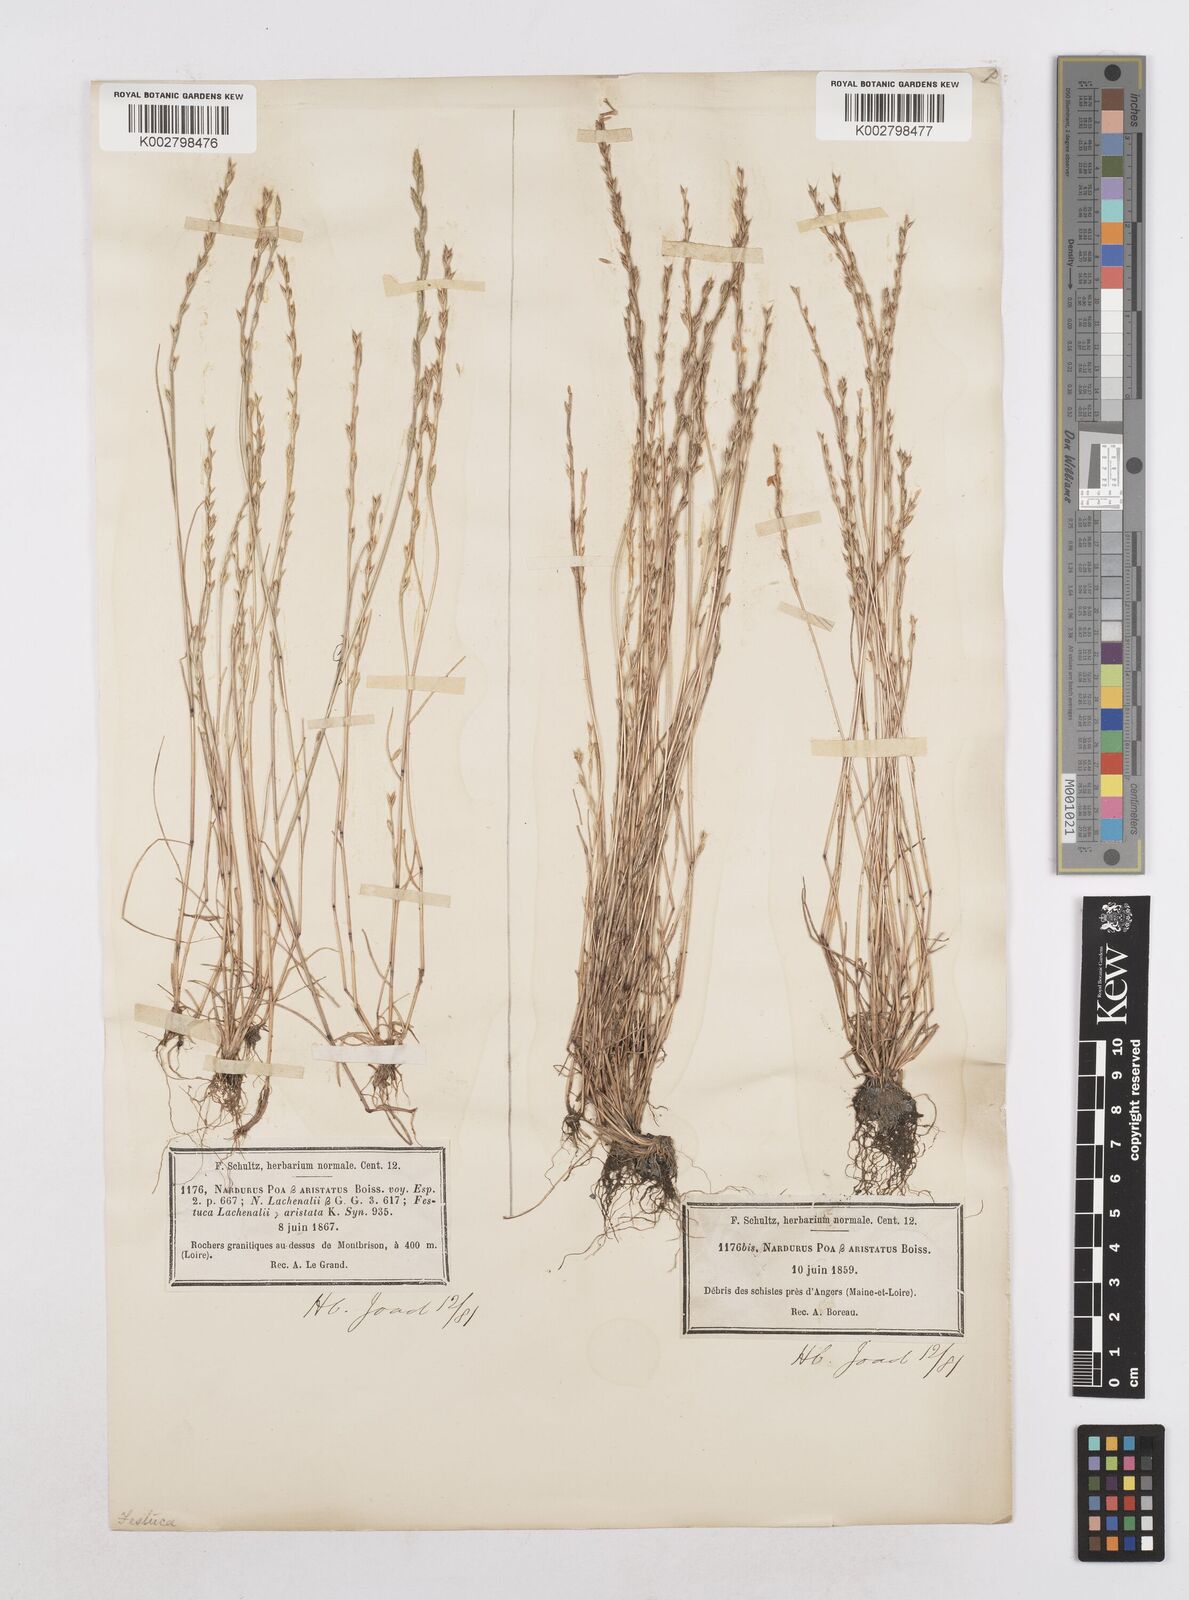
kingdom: Plantae
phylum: Tracheophyta
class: Liliopsida
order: Poales
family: Poaceae
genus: Festuca
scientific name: Festuca lachenalii
